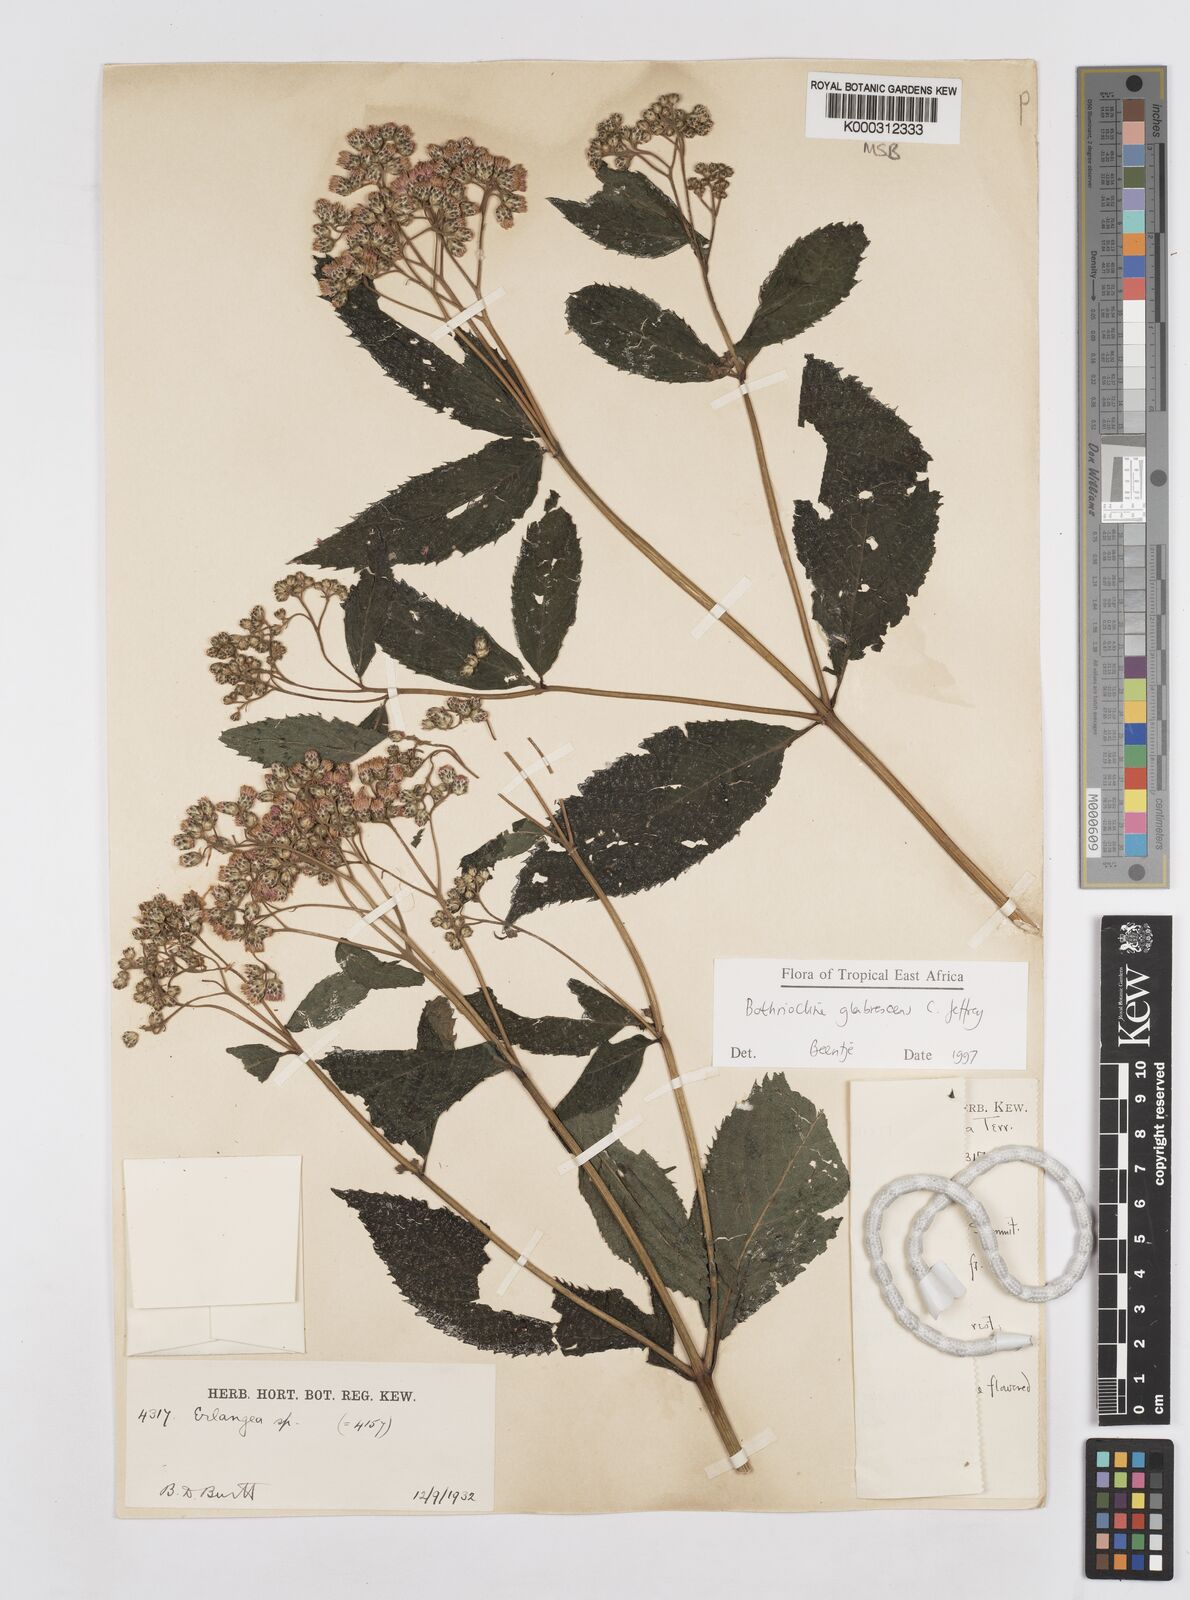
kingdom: Plantae
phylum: Tracheophyta
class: Magnoliopsida
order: Asterales
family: Asteraceae
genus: Bothriocline
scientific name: Bothriocline glabrescens
